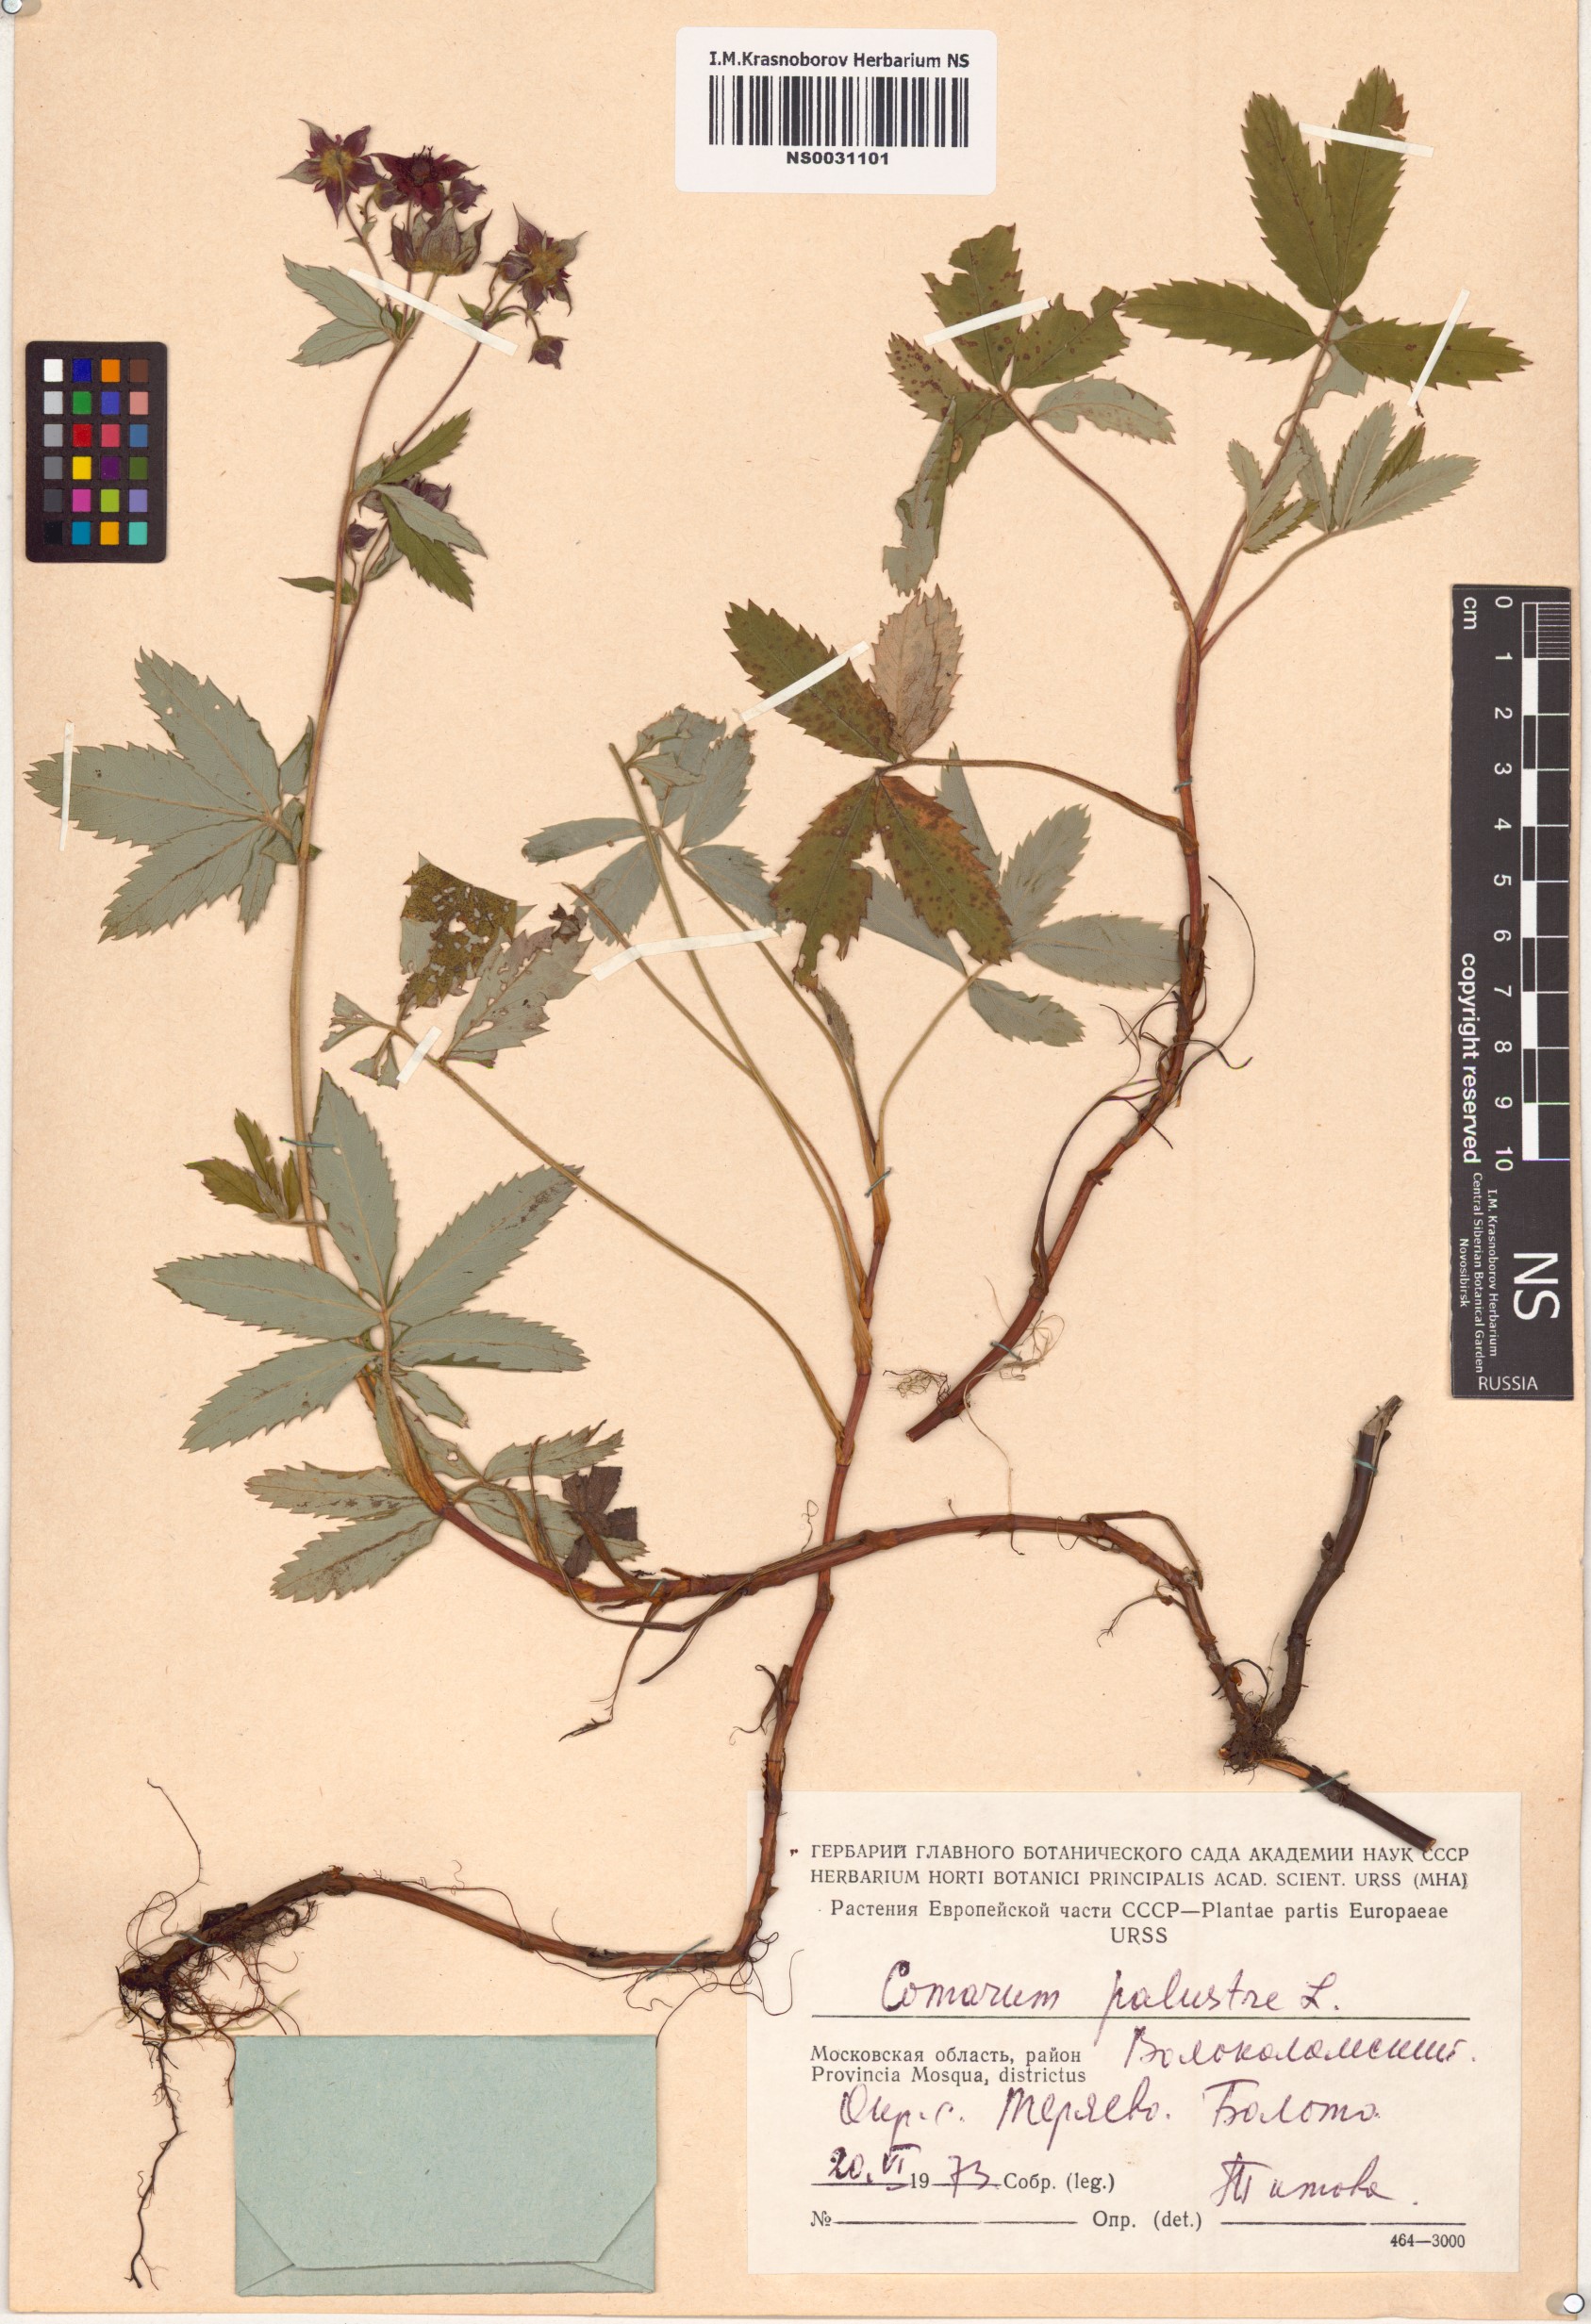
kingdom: Plantae
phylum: Tracheophyta
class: Magnoliopsida
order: Rosales
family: Rosaceae
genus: Comarum
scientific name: Comarum palustre
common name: Marsh cinquefoil
